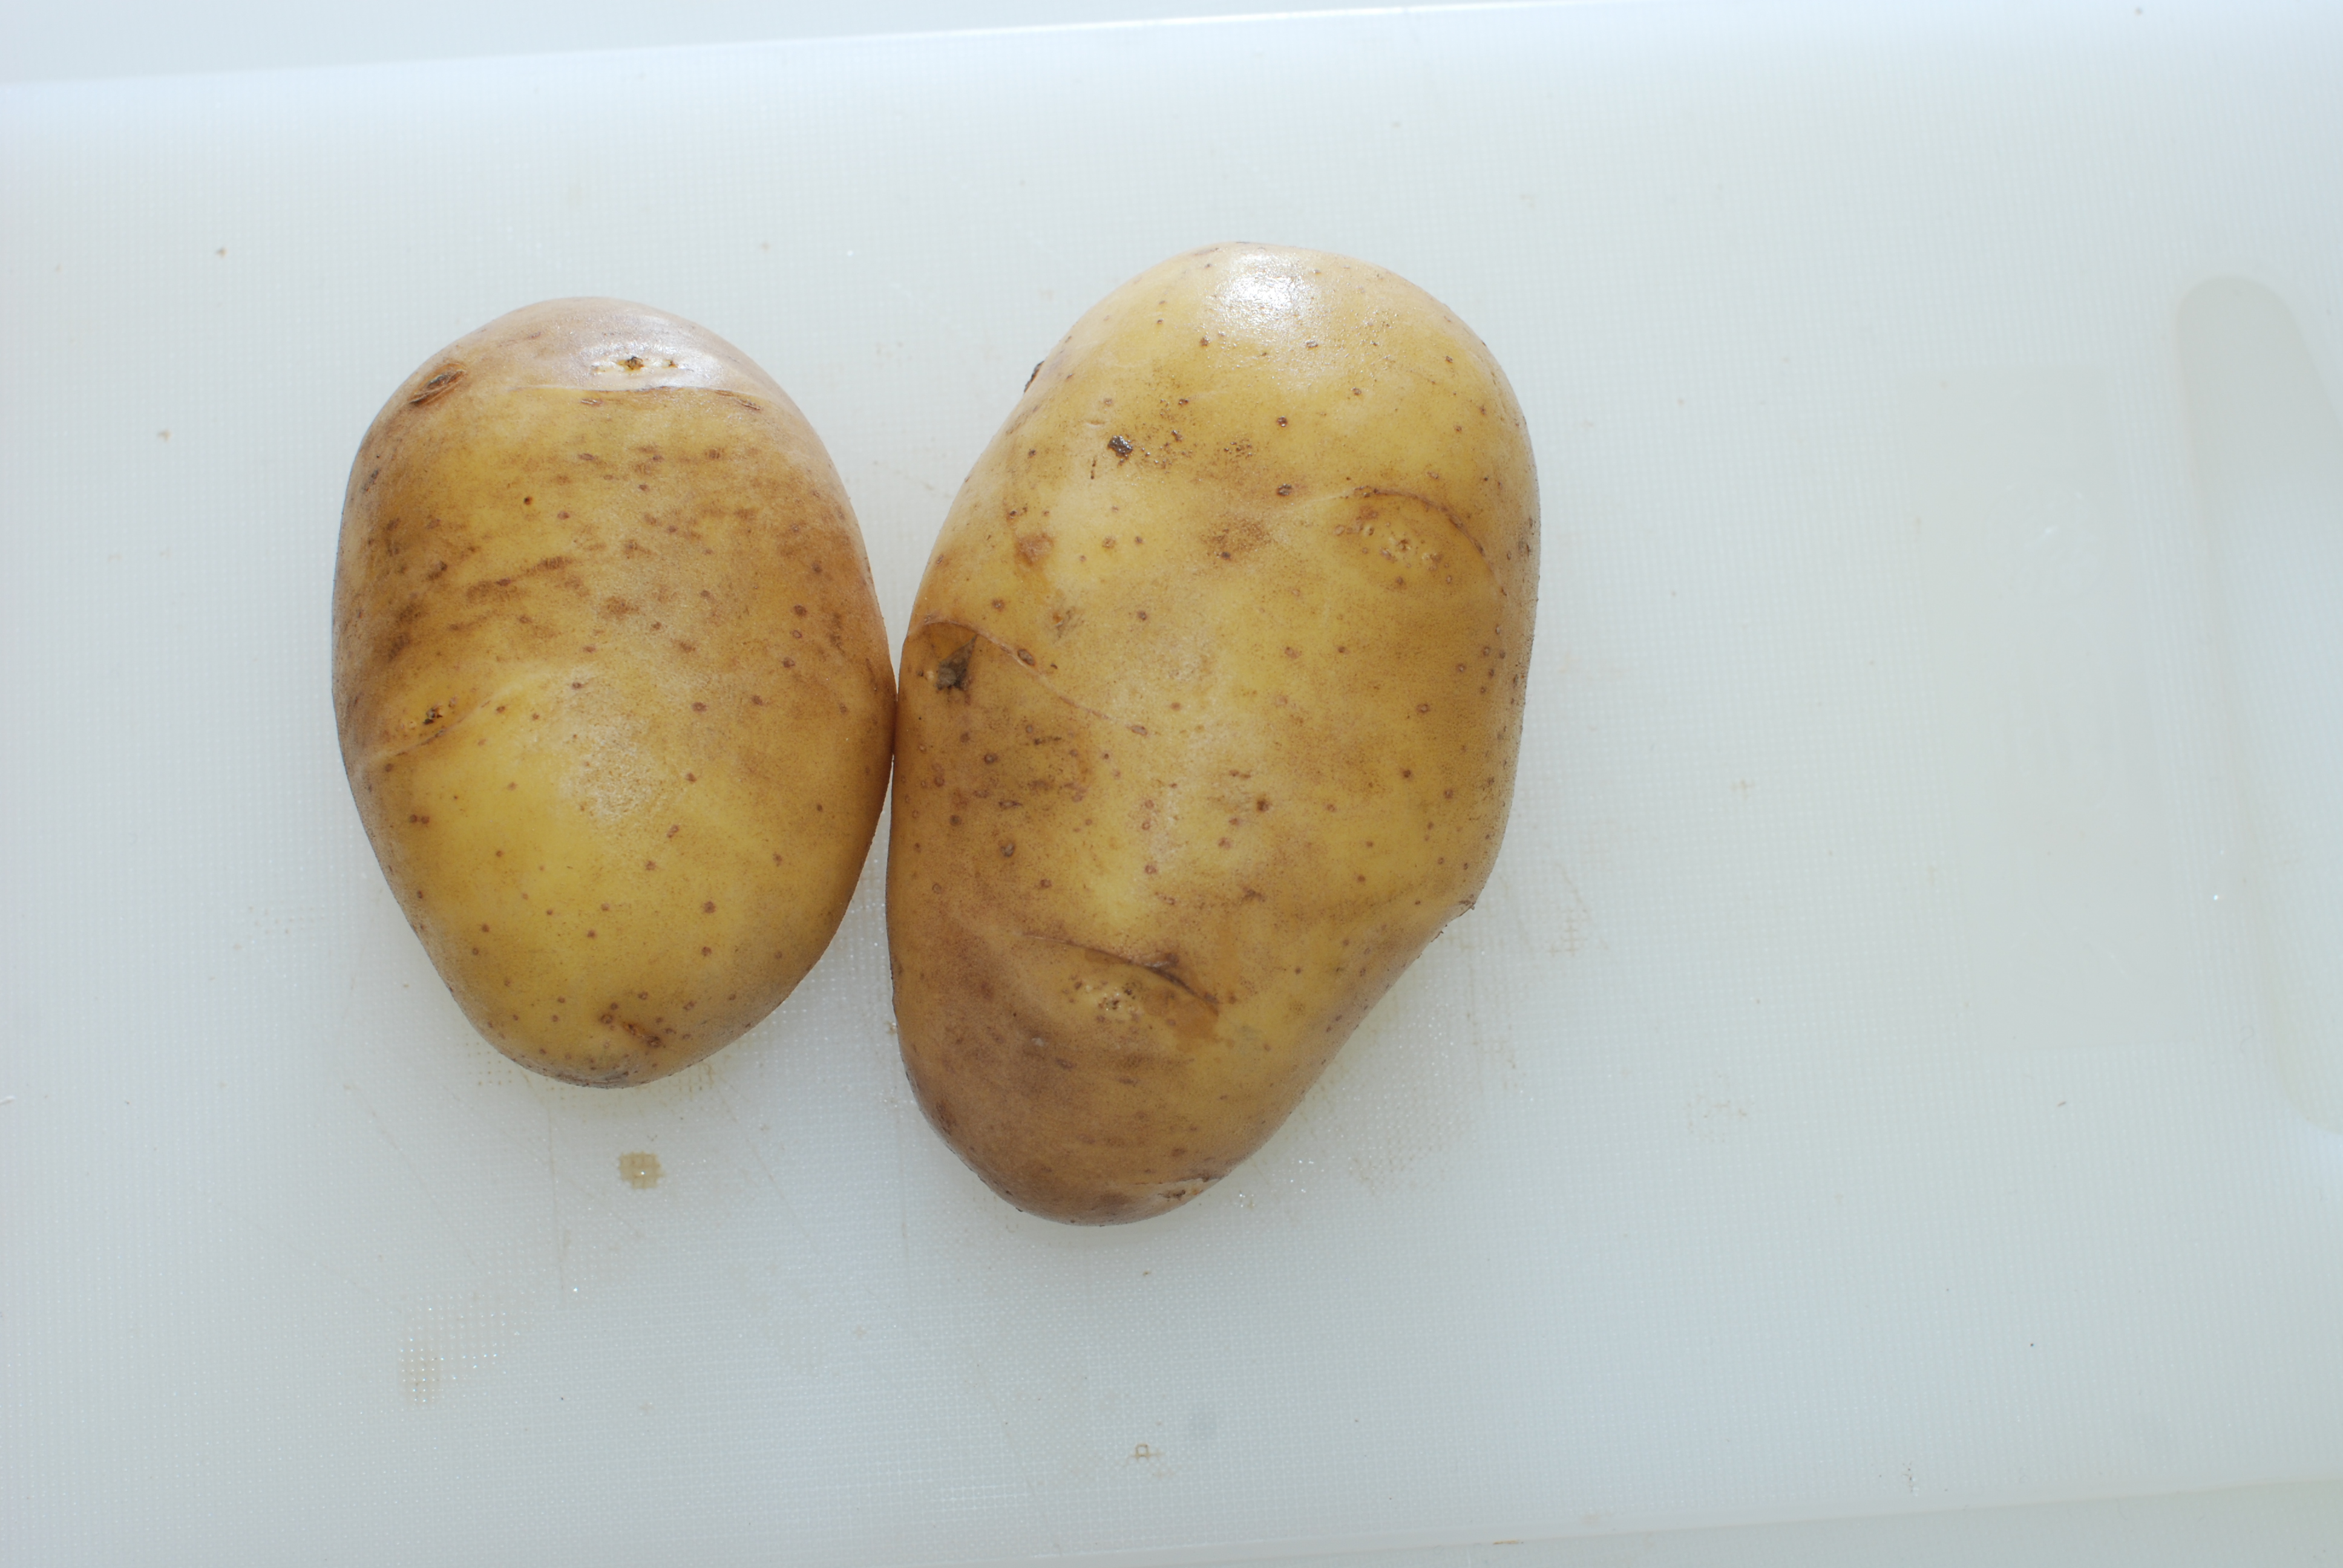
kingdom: Plantae
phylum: Tracheophyta
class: Magnoliopsida
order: Solanales
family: Solanaceae
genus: Solanum
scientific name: Solanum tuberosum
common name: Potato
